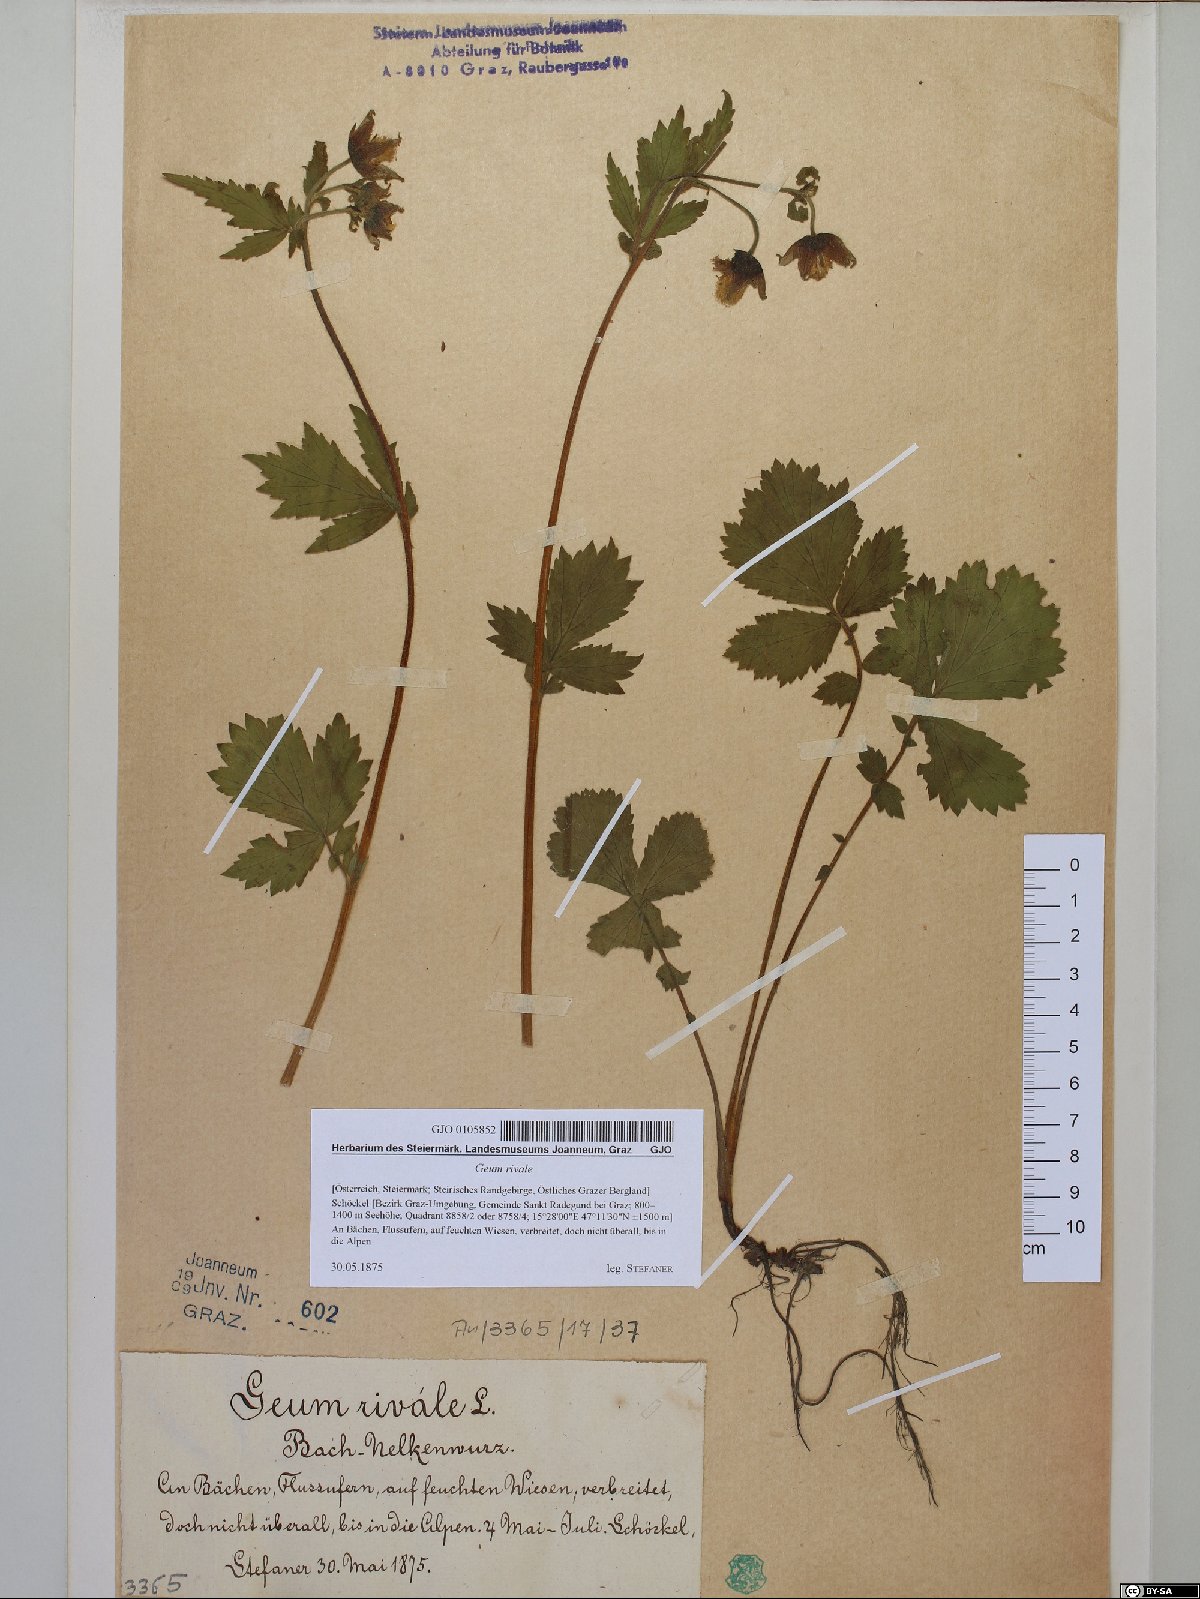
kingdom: Plantae
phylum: Tracheophyta
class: Magnoliopsida
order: Rosales
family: Rosaceae
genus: Geum
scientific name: Geum rivale
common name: Water avens
